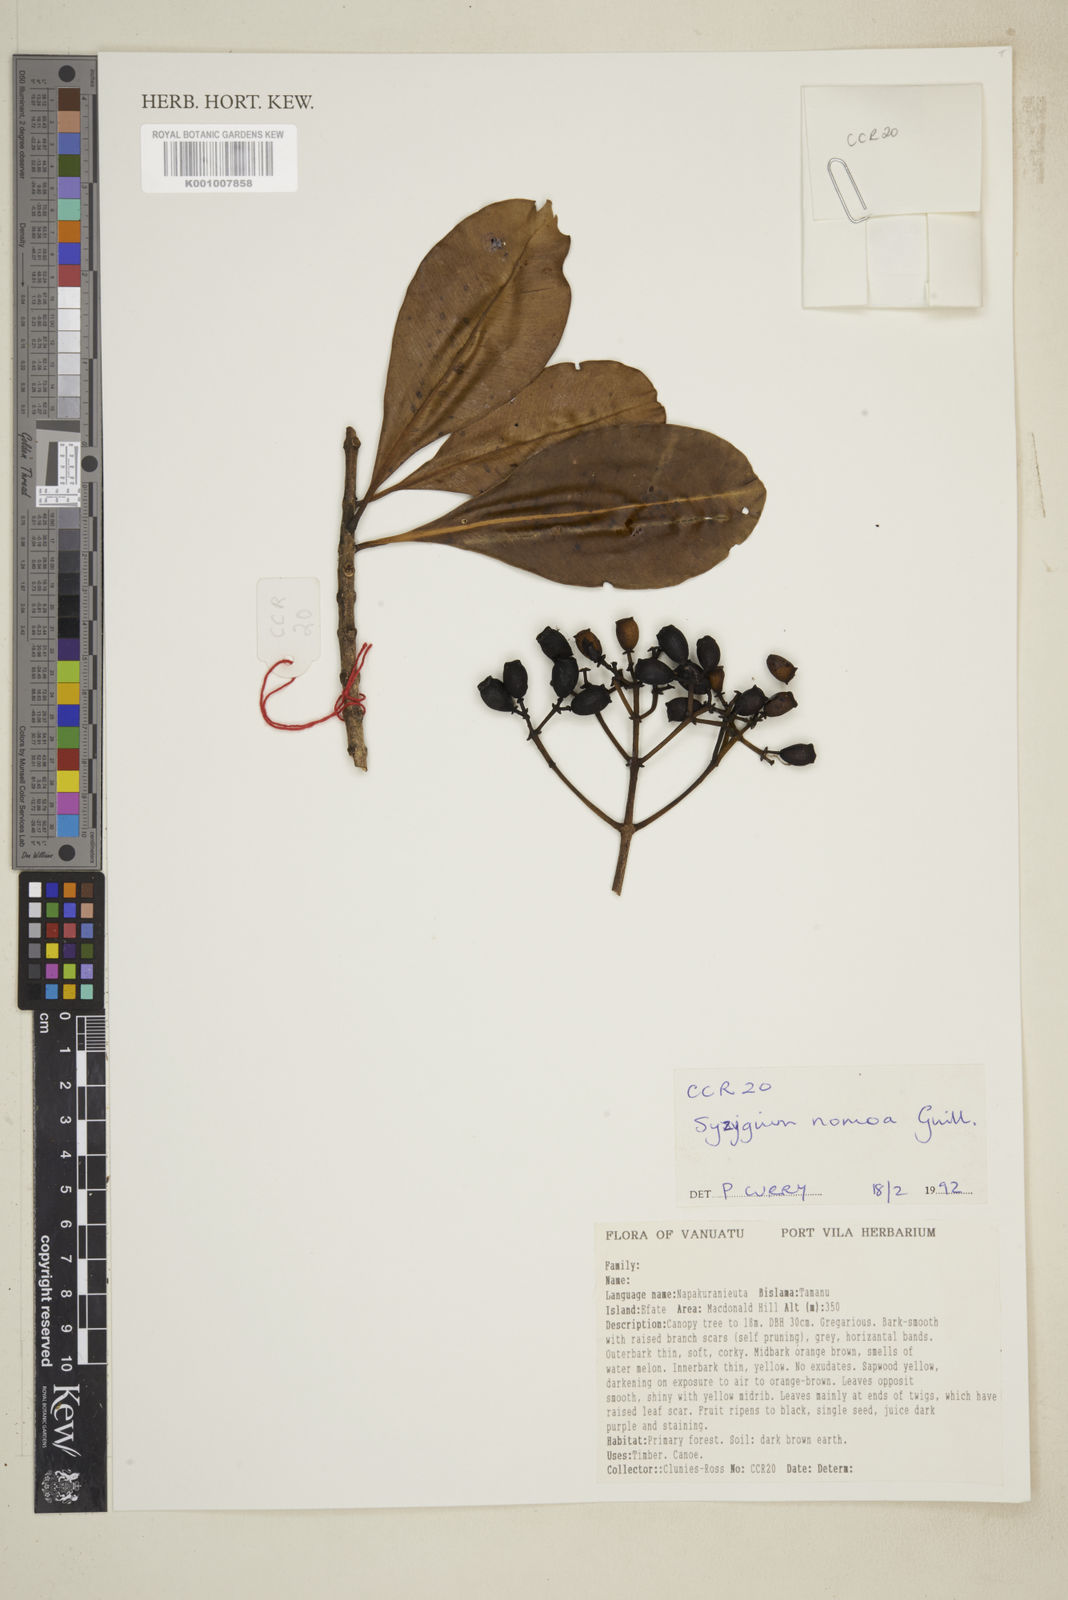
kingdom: Plantae
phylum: Tracheophyta
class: Magnoliopsida
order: Myrtales
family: Myrtaceae
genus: Syzygium
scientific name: Syzygium nomoa
